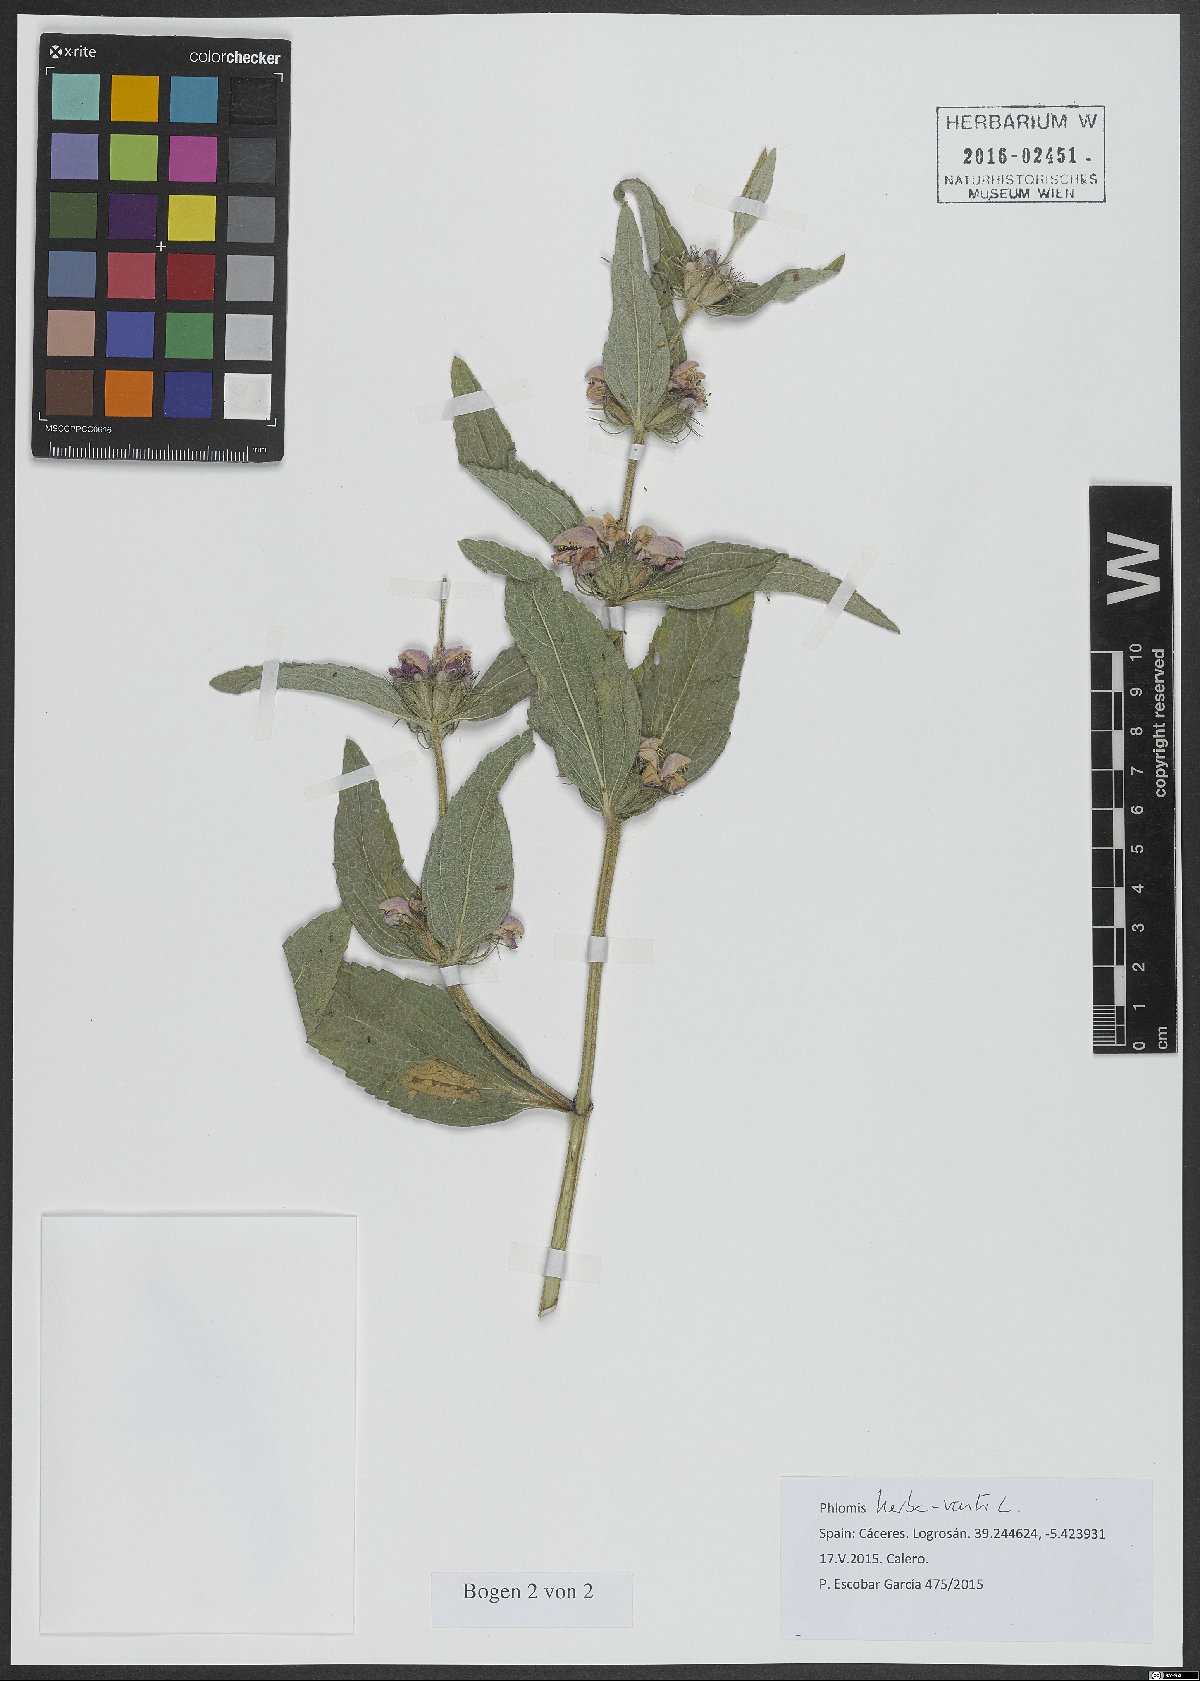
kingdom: Plantae
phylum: Tracheophyta
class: Magnoliopsida
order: Lamiales
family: Lamiaceae
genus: Phlomis
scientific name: Phlomis herba-venti
